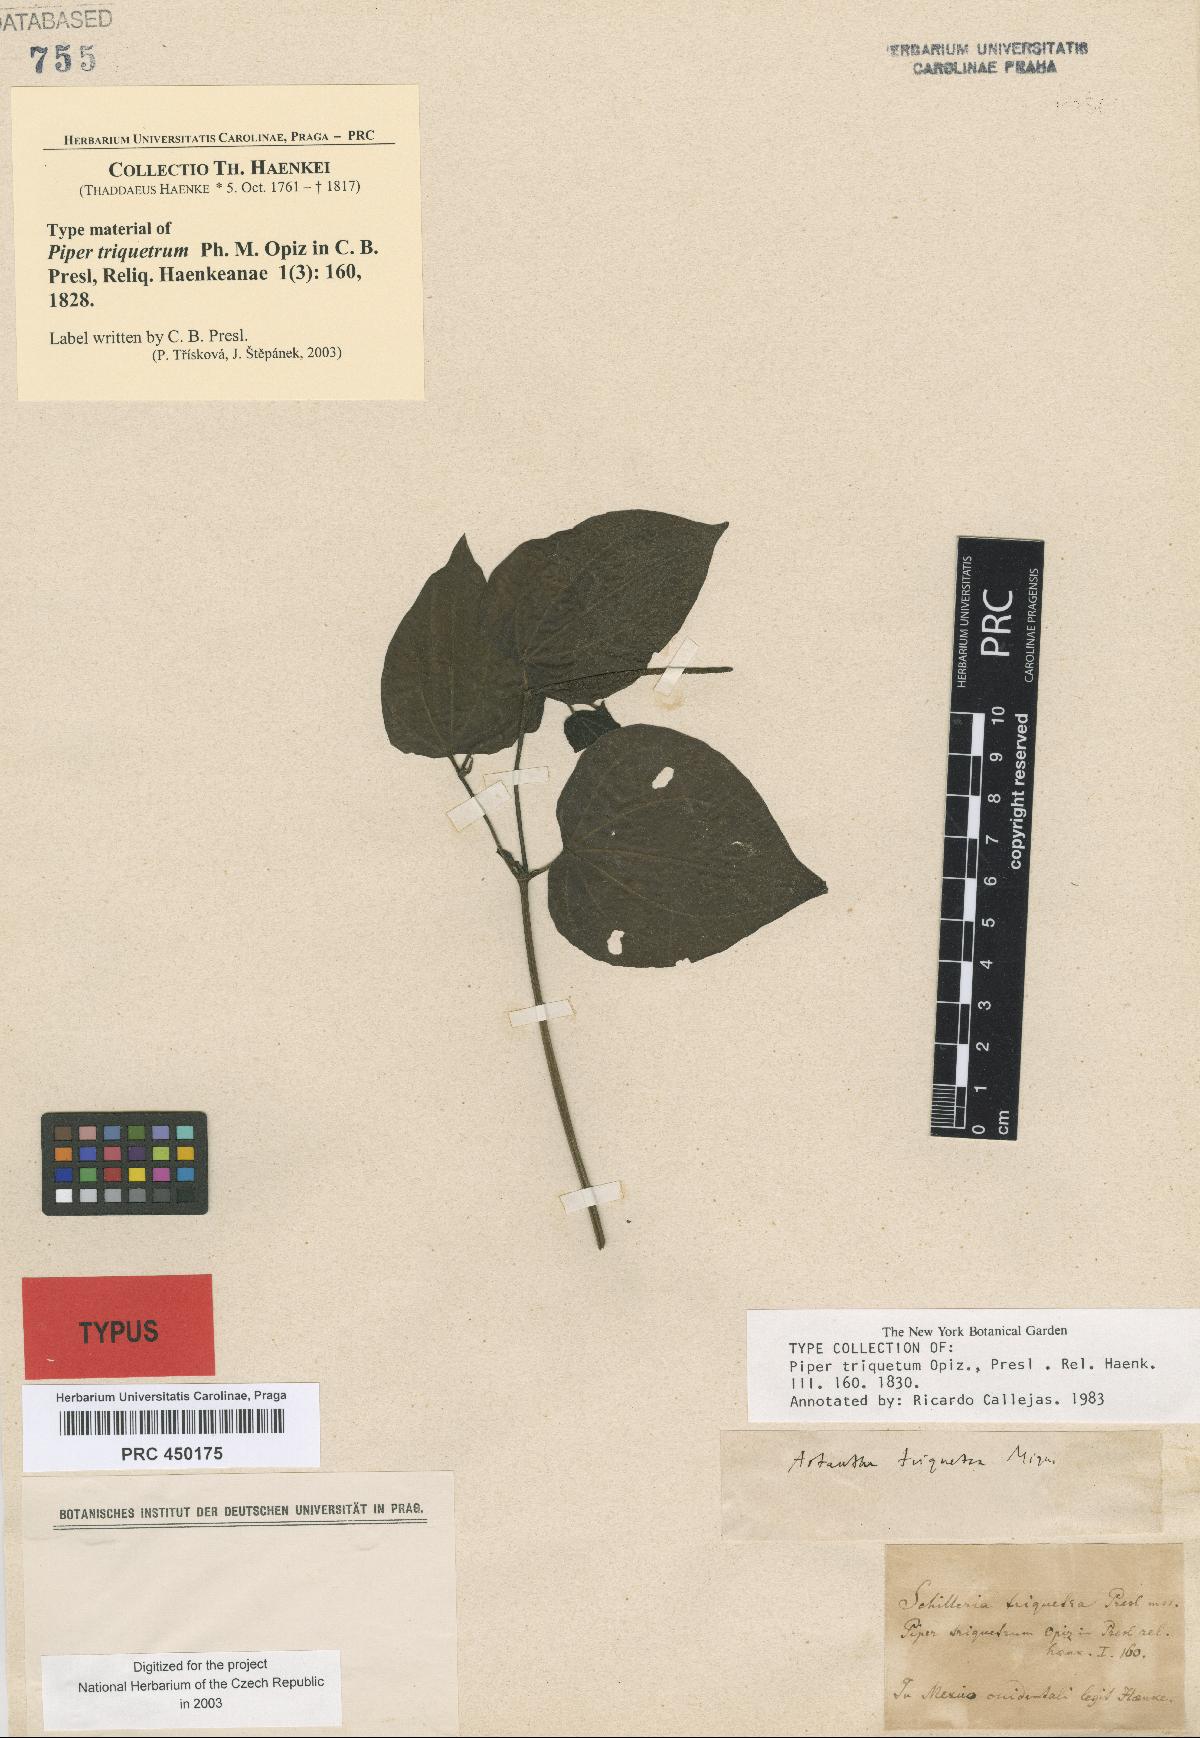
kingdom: Plantae
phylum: Tracheophyta
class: Magnoliopsida
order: Piperales
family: Piperaceae
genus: Piper
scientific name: Piper triquetrum
